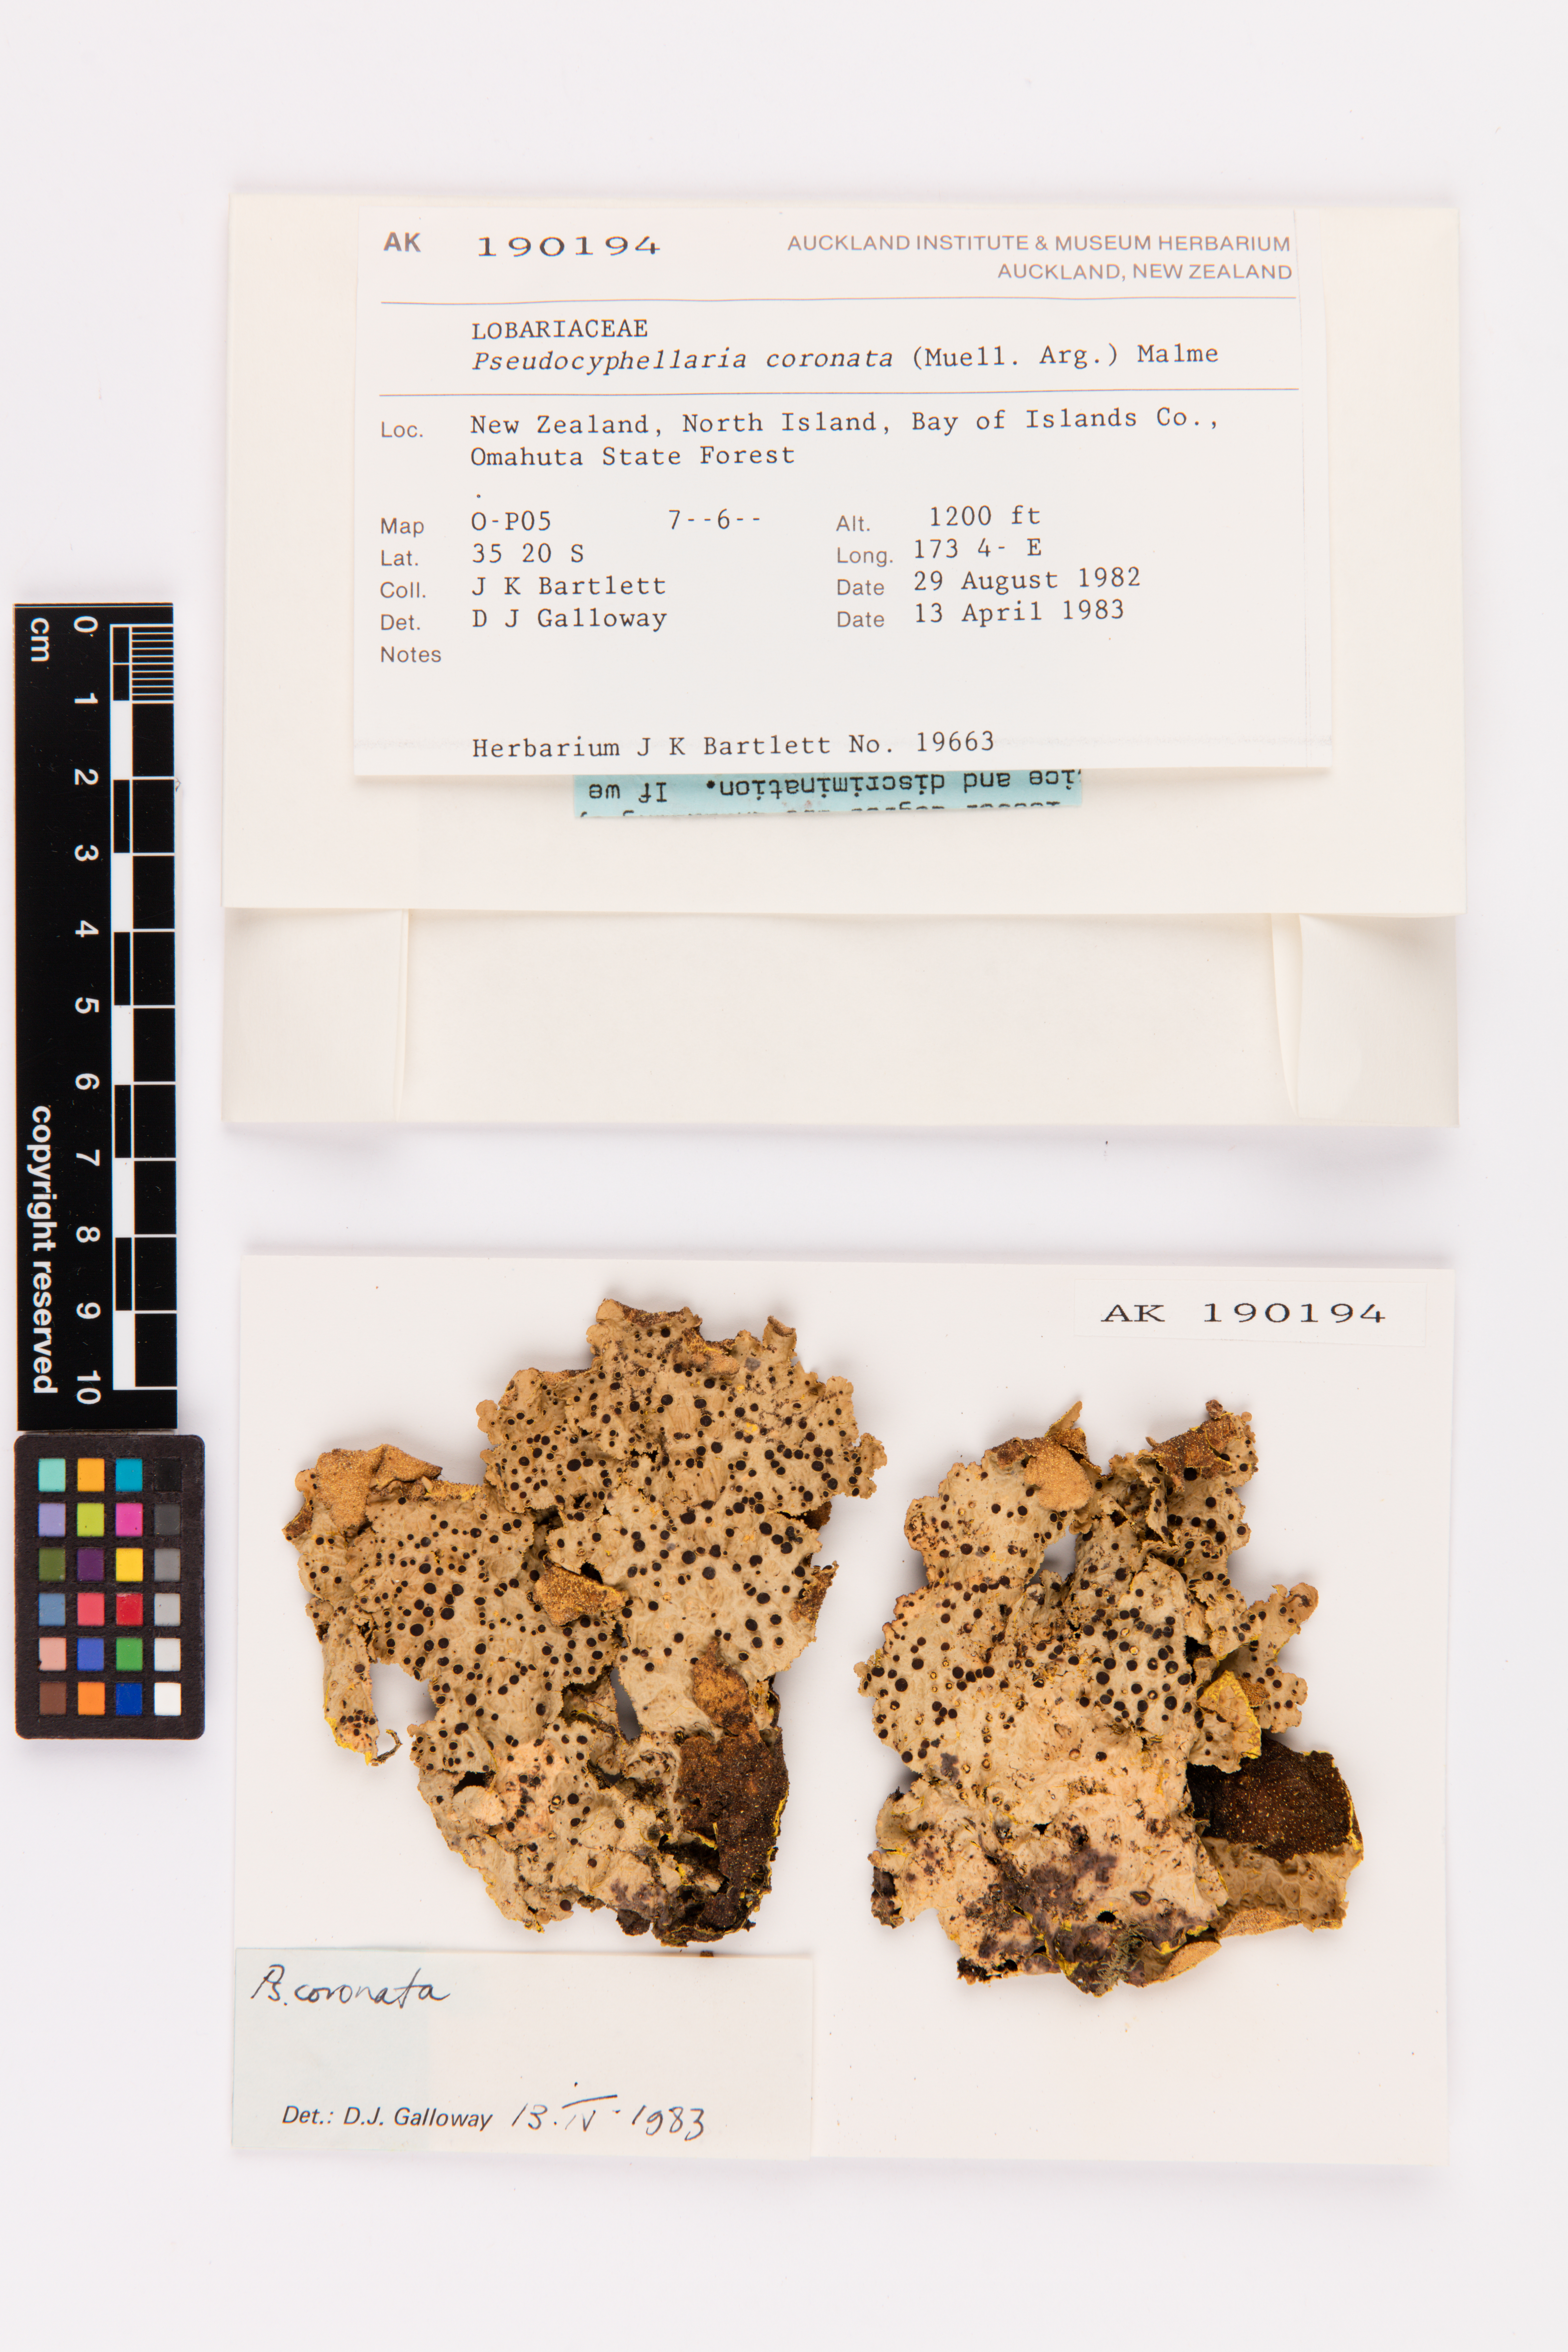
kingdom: Fungi
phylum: Ascomycota
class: Lecanoromycetes
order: Peltigerales
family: Lobariaceae
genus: Yarrumia
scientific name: Yarrumia coronata
